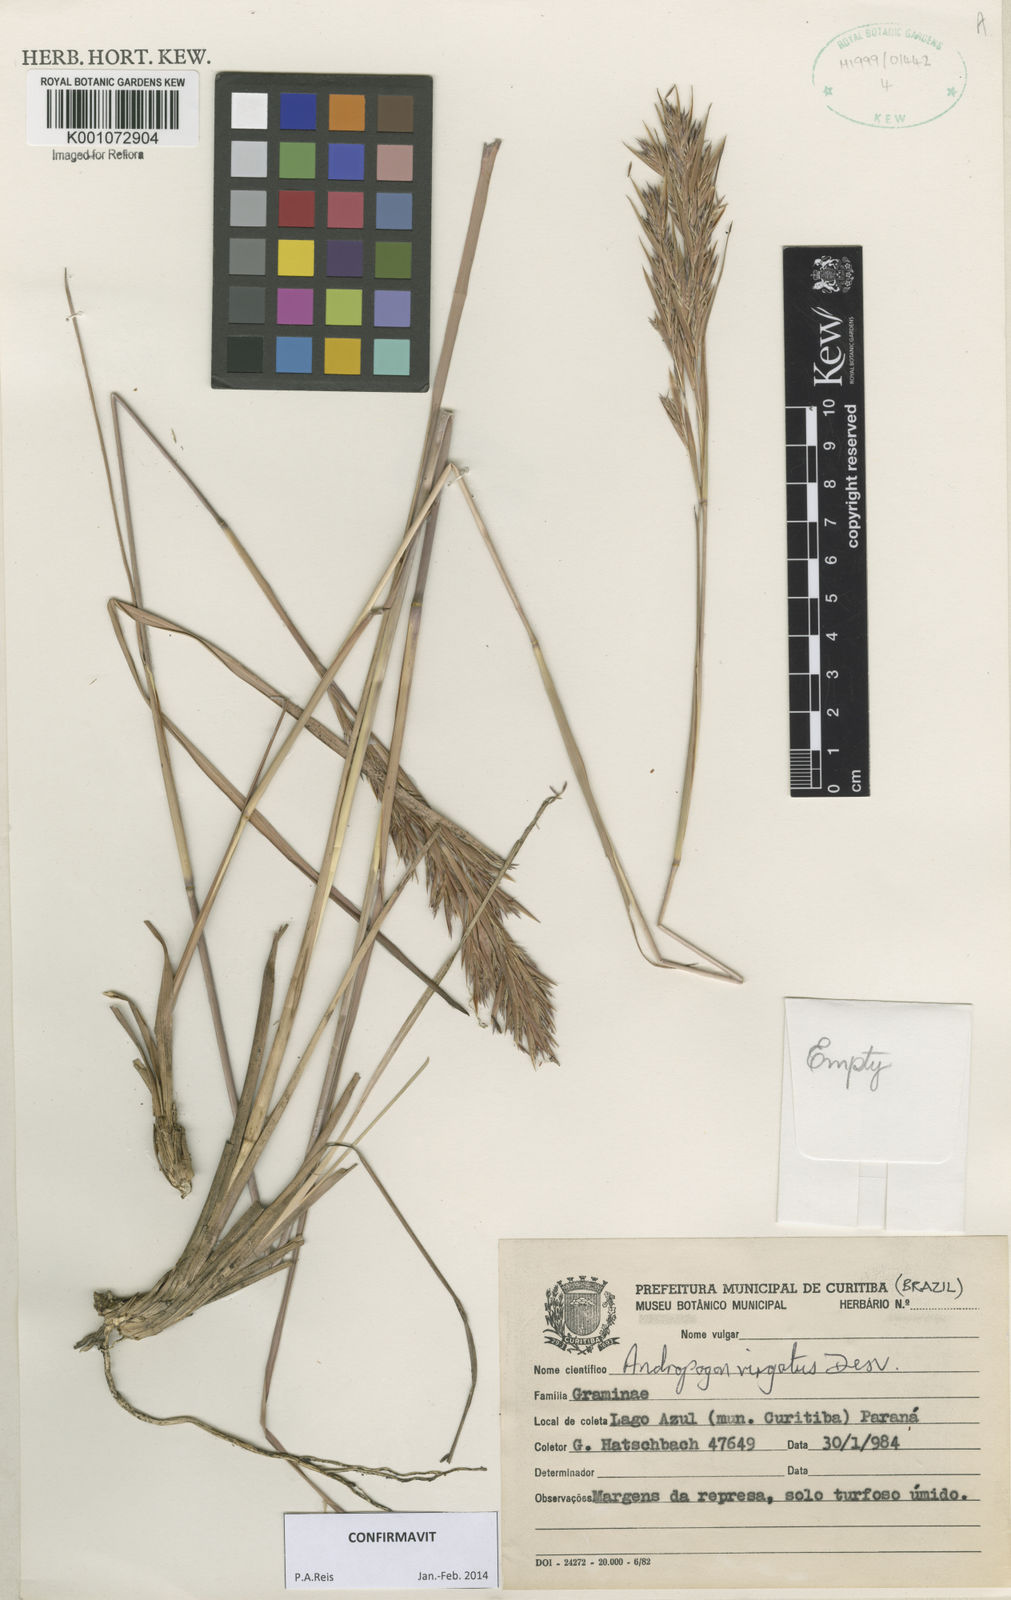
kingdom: Plantae
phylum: Tracheophyta
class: Liliopsida
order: Poales
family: Poaceae
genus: Andropogon
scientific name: Andropogon virgatus
